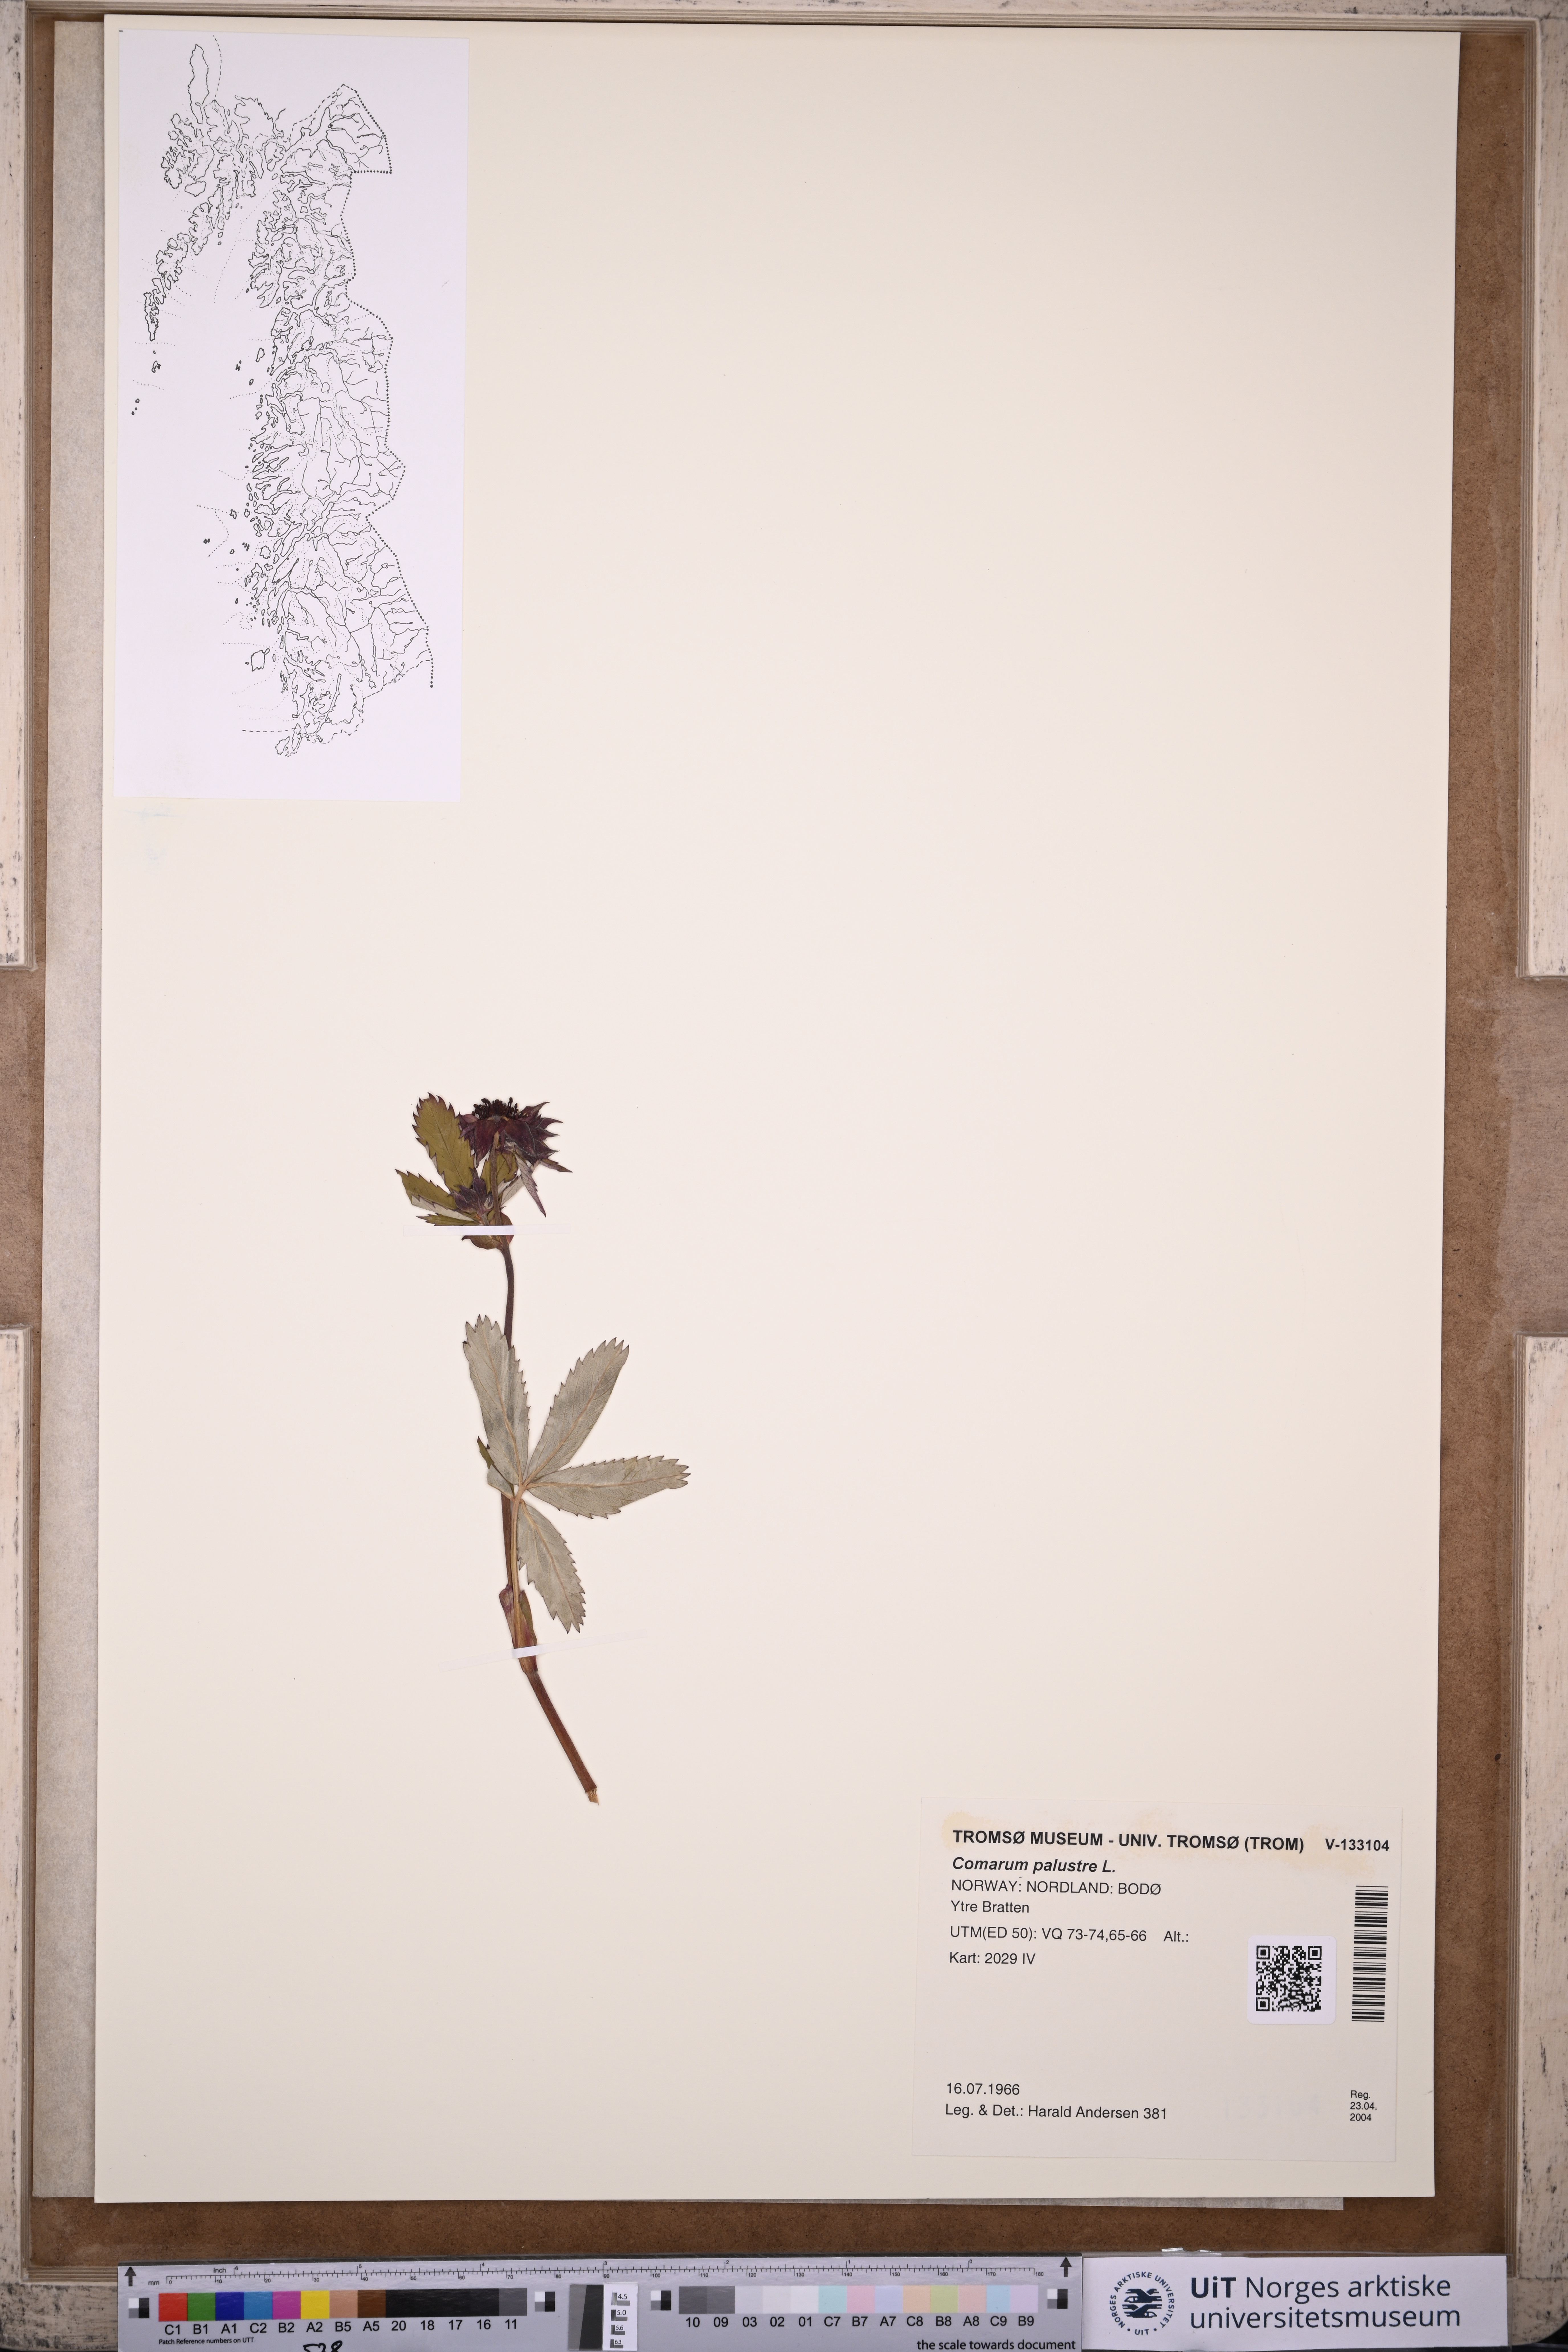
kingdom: Plantae
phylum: Tracheophyta
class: Magnoliopsida
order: Rosales
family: Rosaceae
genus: Comarum
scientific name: Comarum palustre
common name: Marsh cinquefoil
